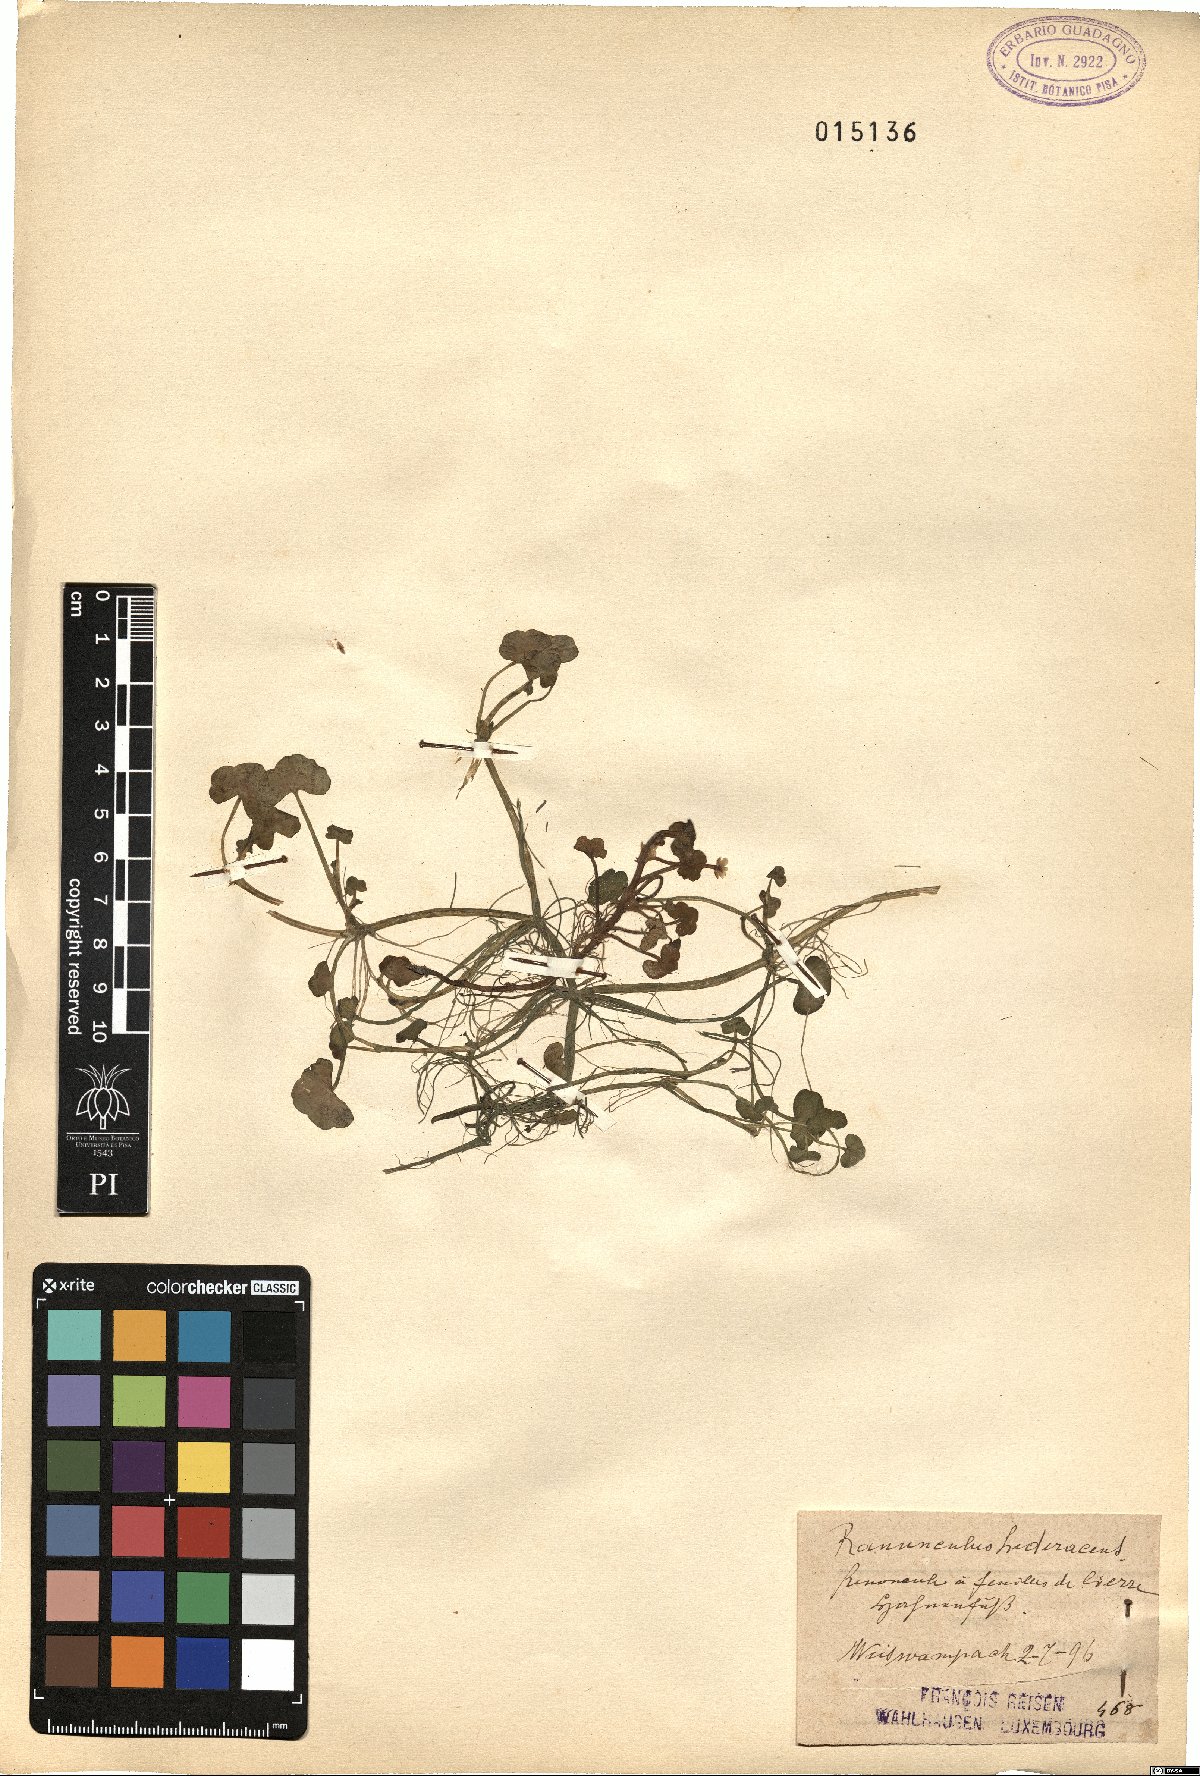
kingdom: Plantae
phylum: Tracheophyta
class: Magnoliopsida
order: Ranunculales
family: Ranunculaceae
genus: Ranunculus
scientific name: Ranunculus hederaceus
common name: Ivy-leaved crowfoot
